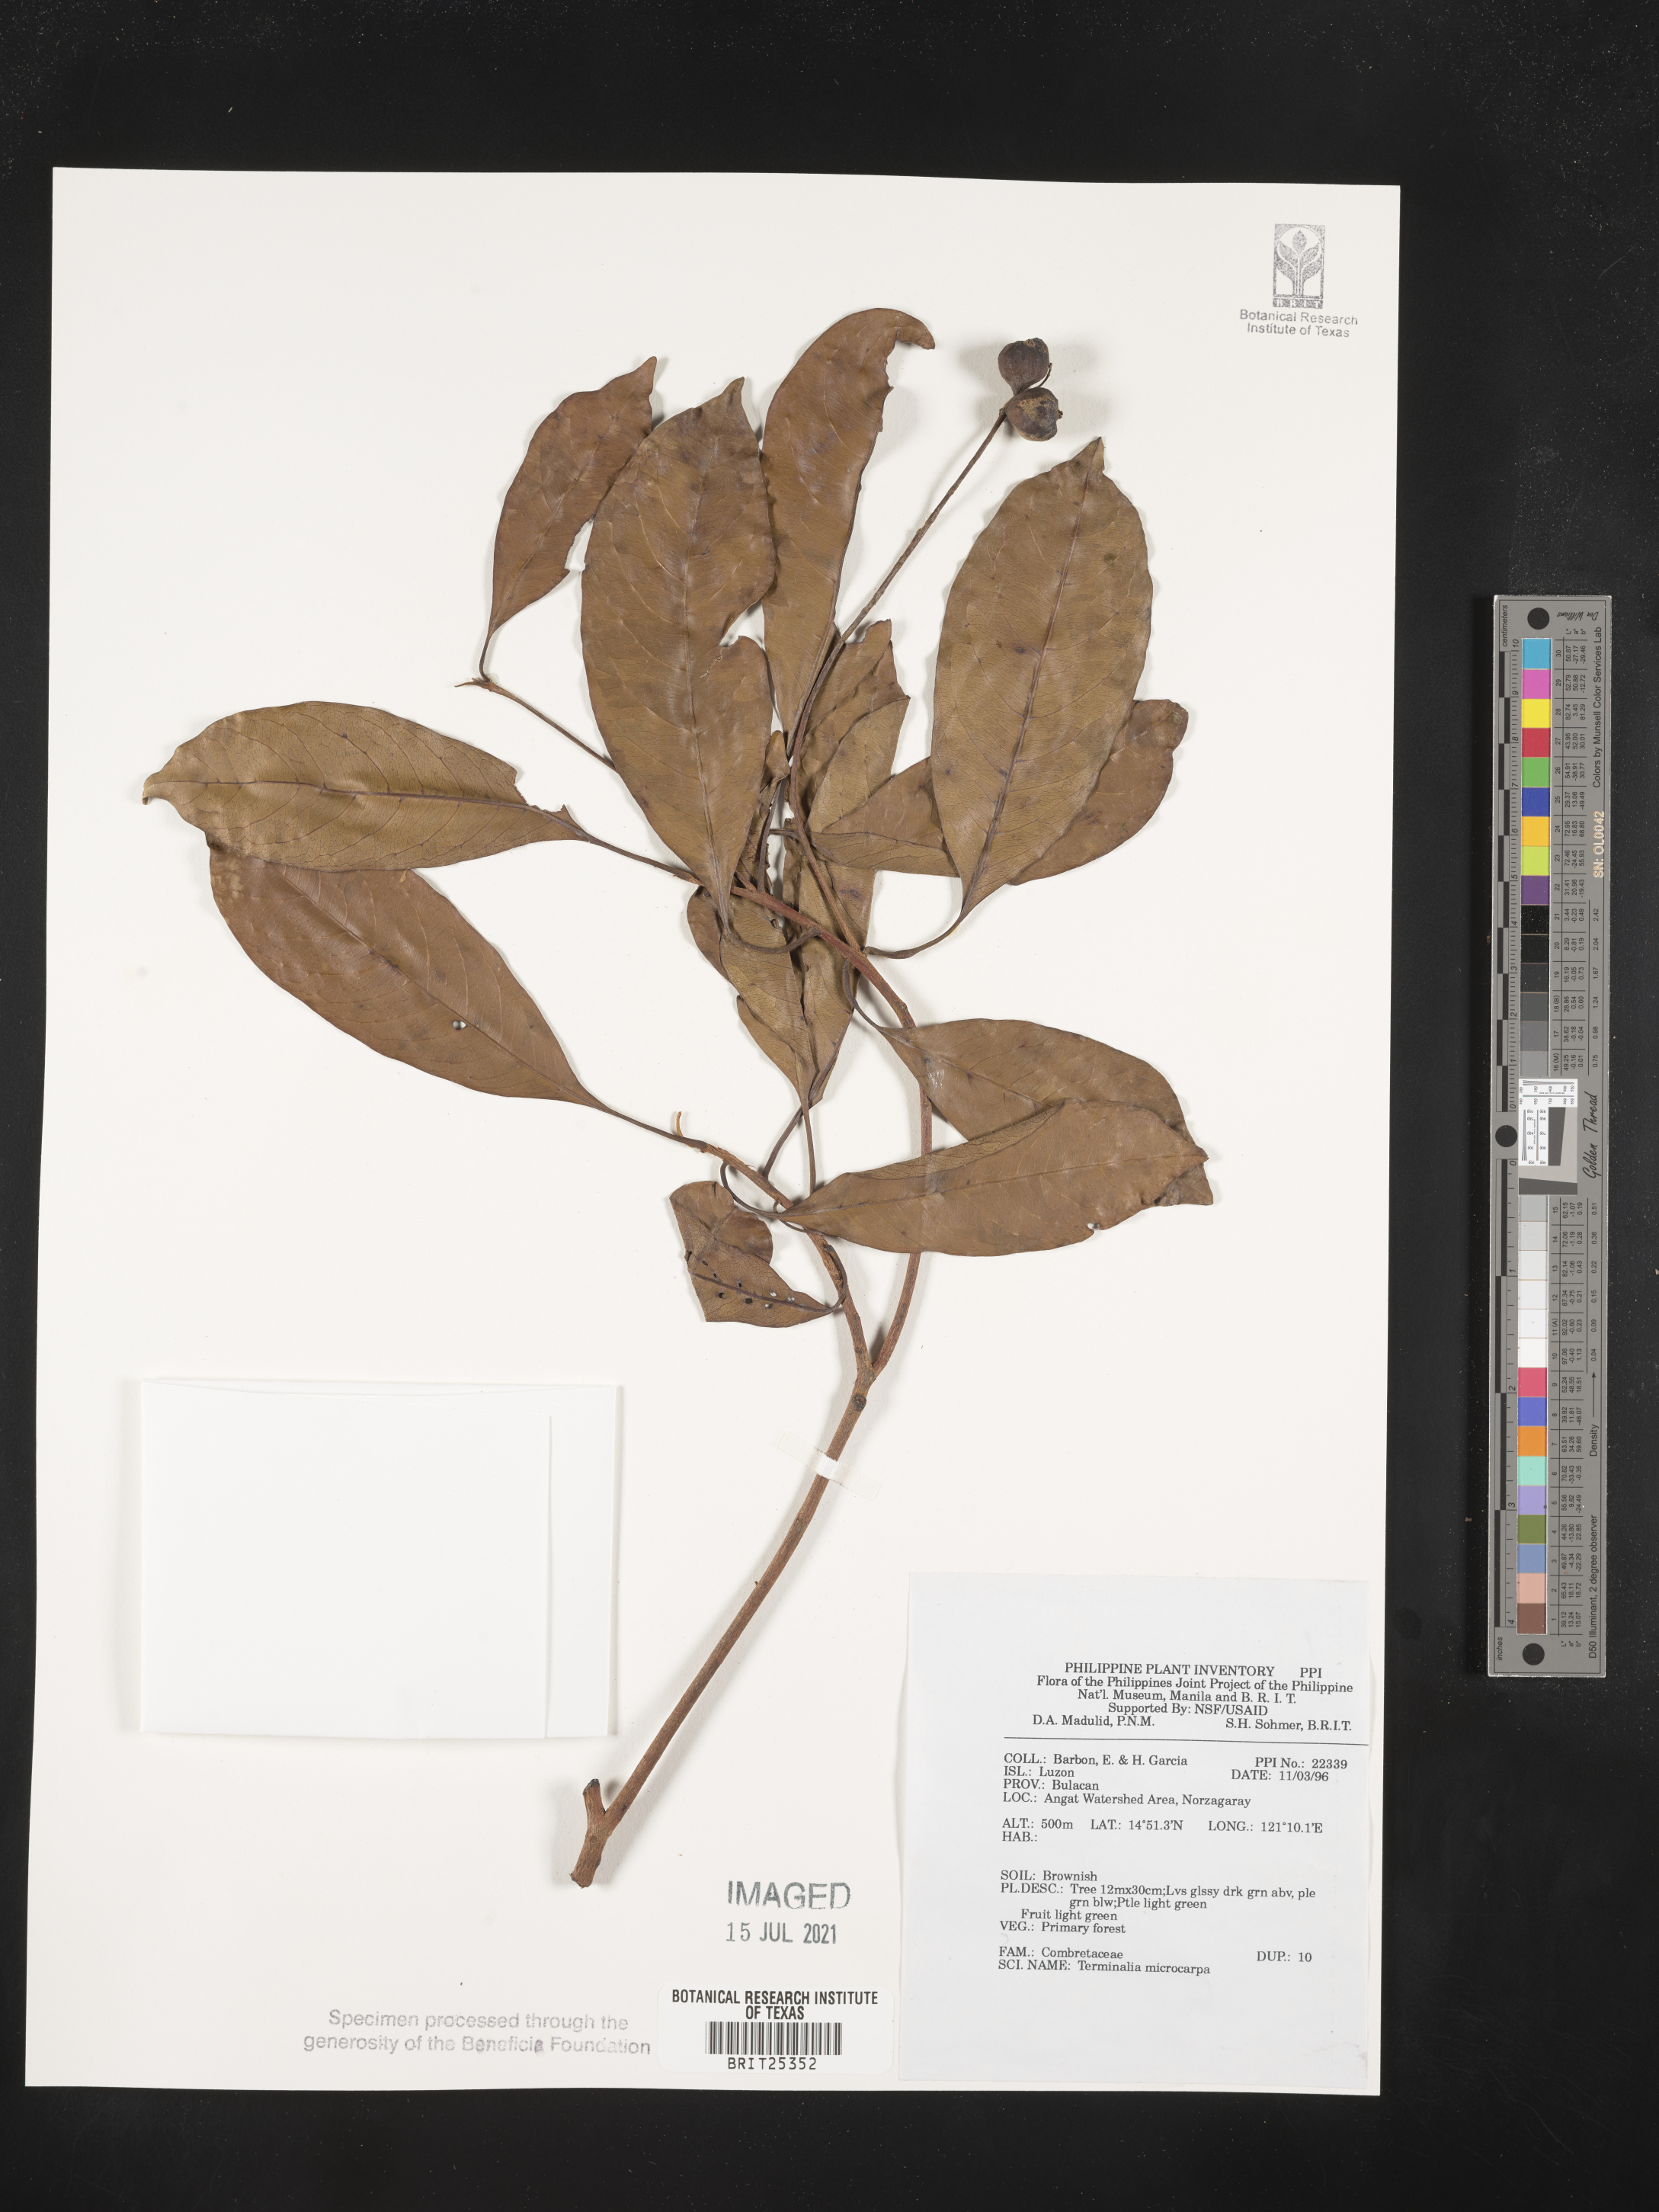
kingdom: Plantae
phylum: Tracheophyta
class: Magnoliopsida
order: Myrtales
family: Combretaceae
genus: Terminalia
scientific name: Terminalia microcarpa
